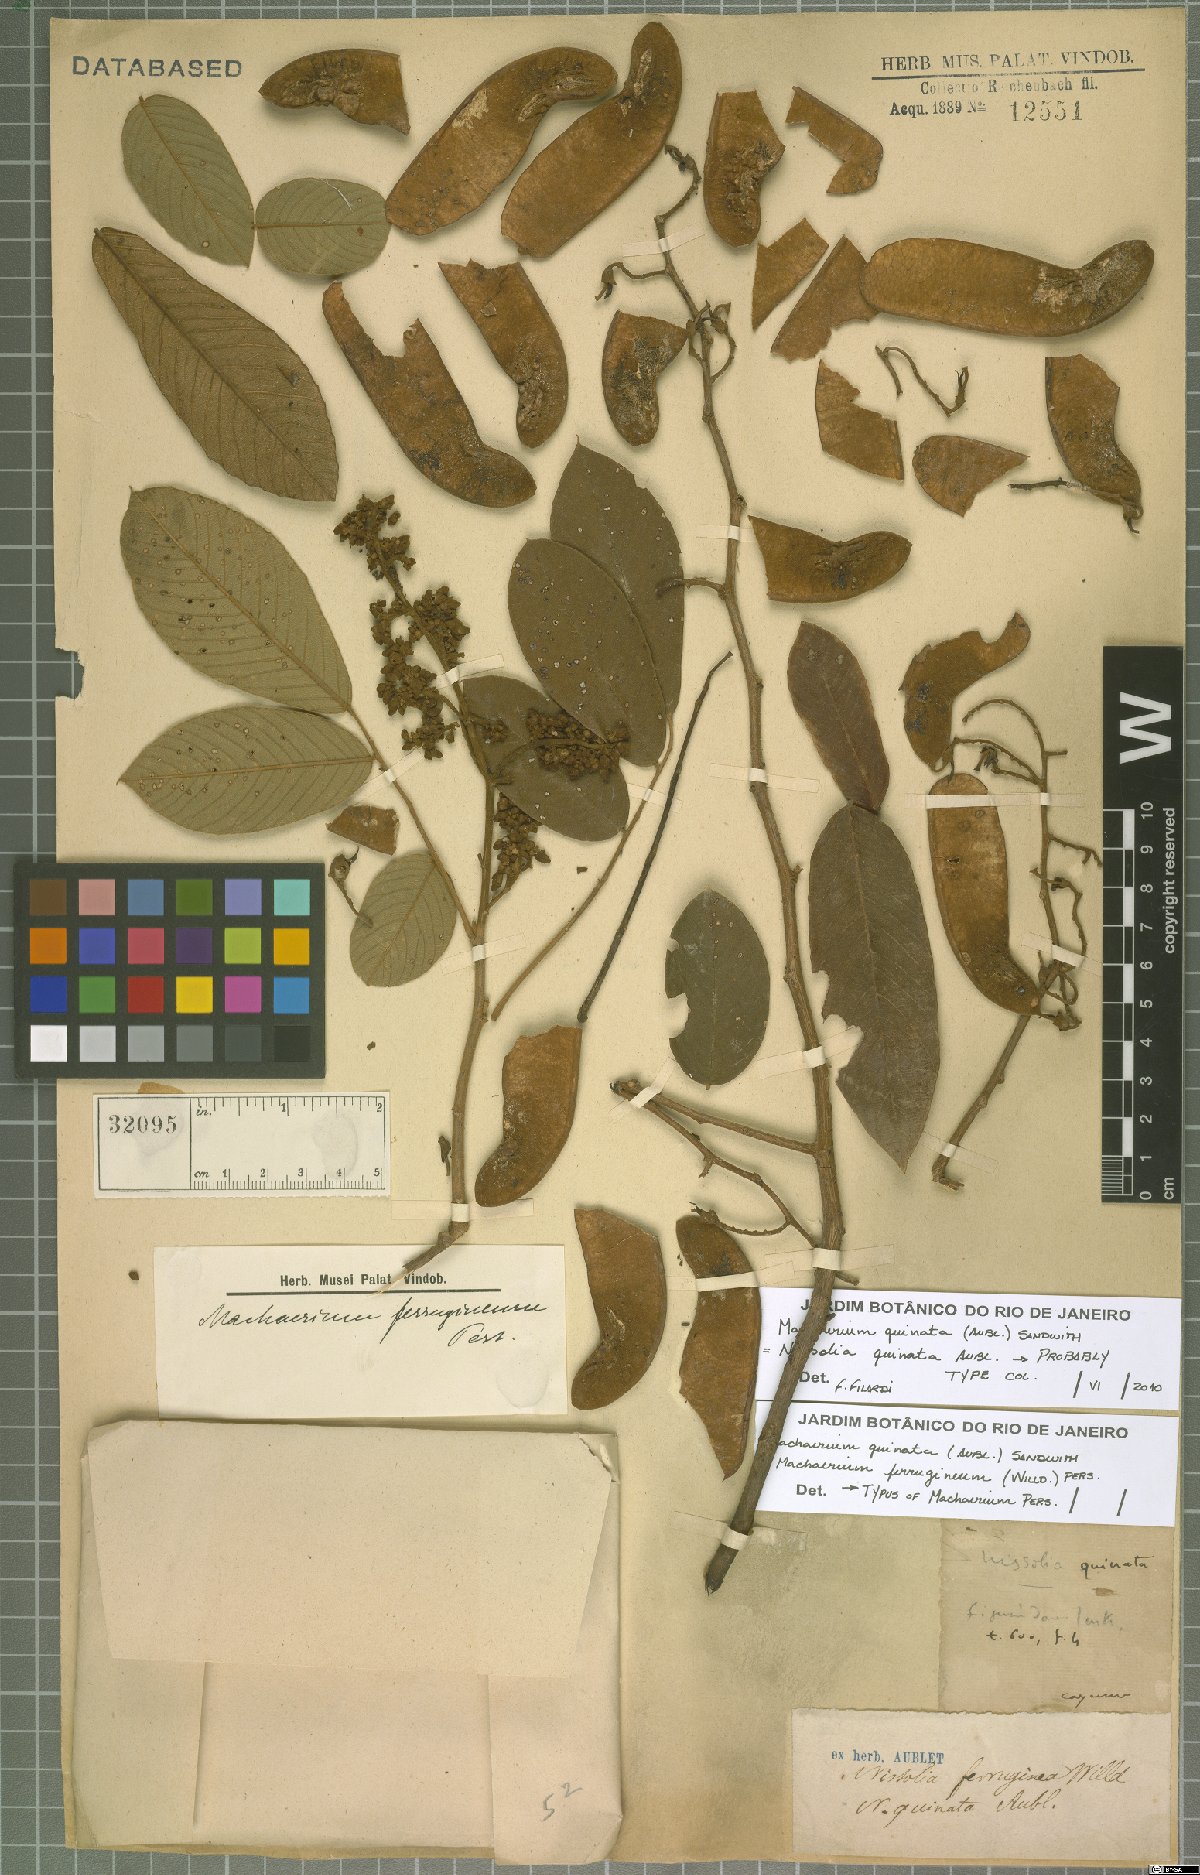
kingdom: Plantae
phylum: Tracheophyta
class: Magnoliopsida
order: Fabales
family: Fabaceae
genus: Machaerium
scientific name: Machaerium quinata
